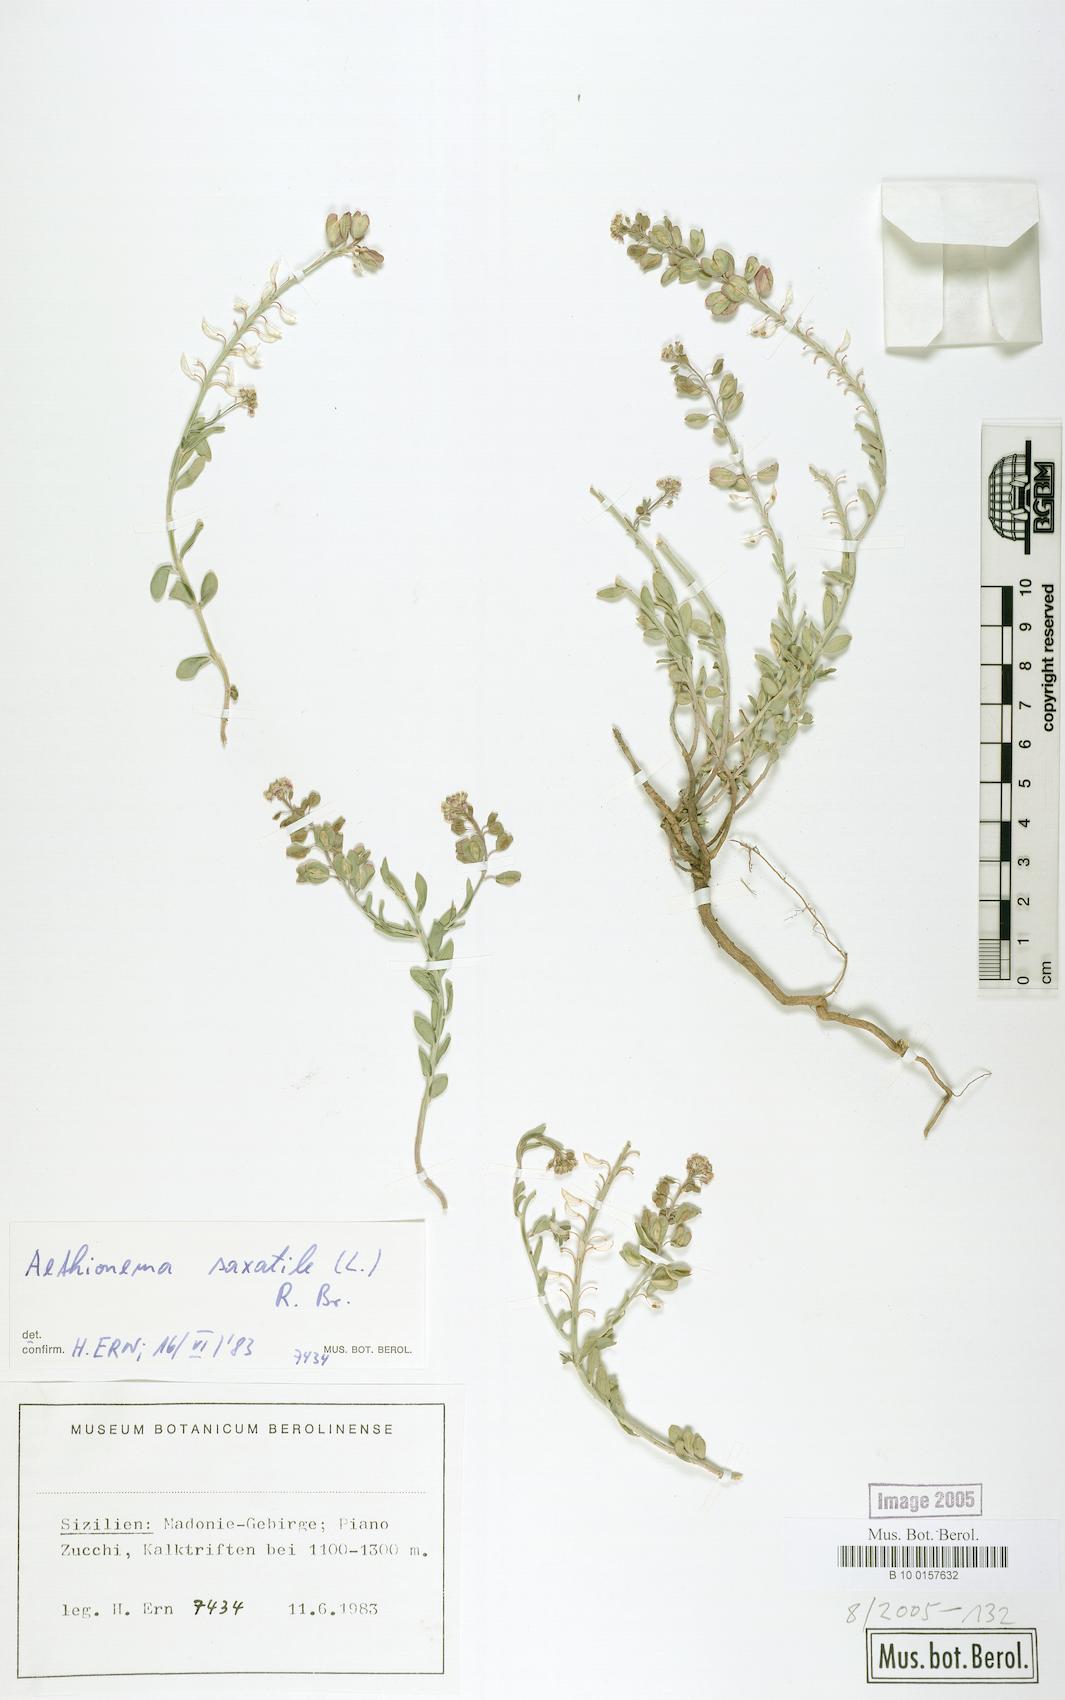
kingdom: Plantae
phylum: Tracheophyta
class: Magnoliopsida
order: Brassicales
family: Brassicaceae
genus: Aethionema
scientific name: Aethionema saxatile
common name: Burnt candytuft
